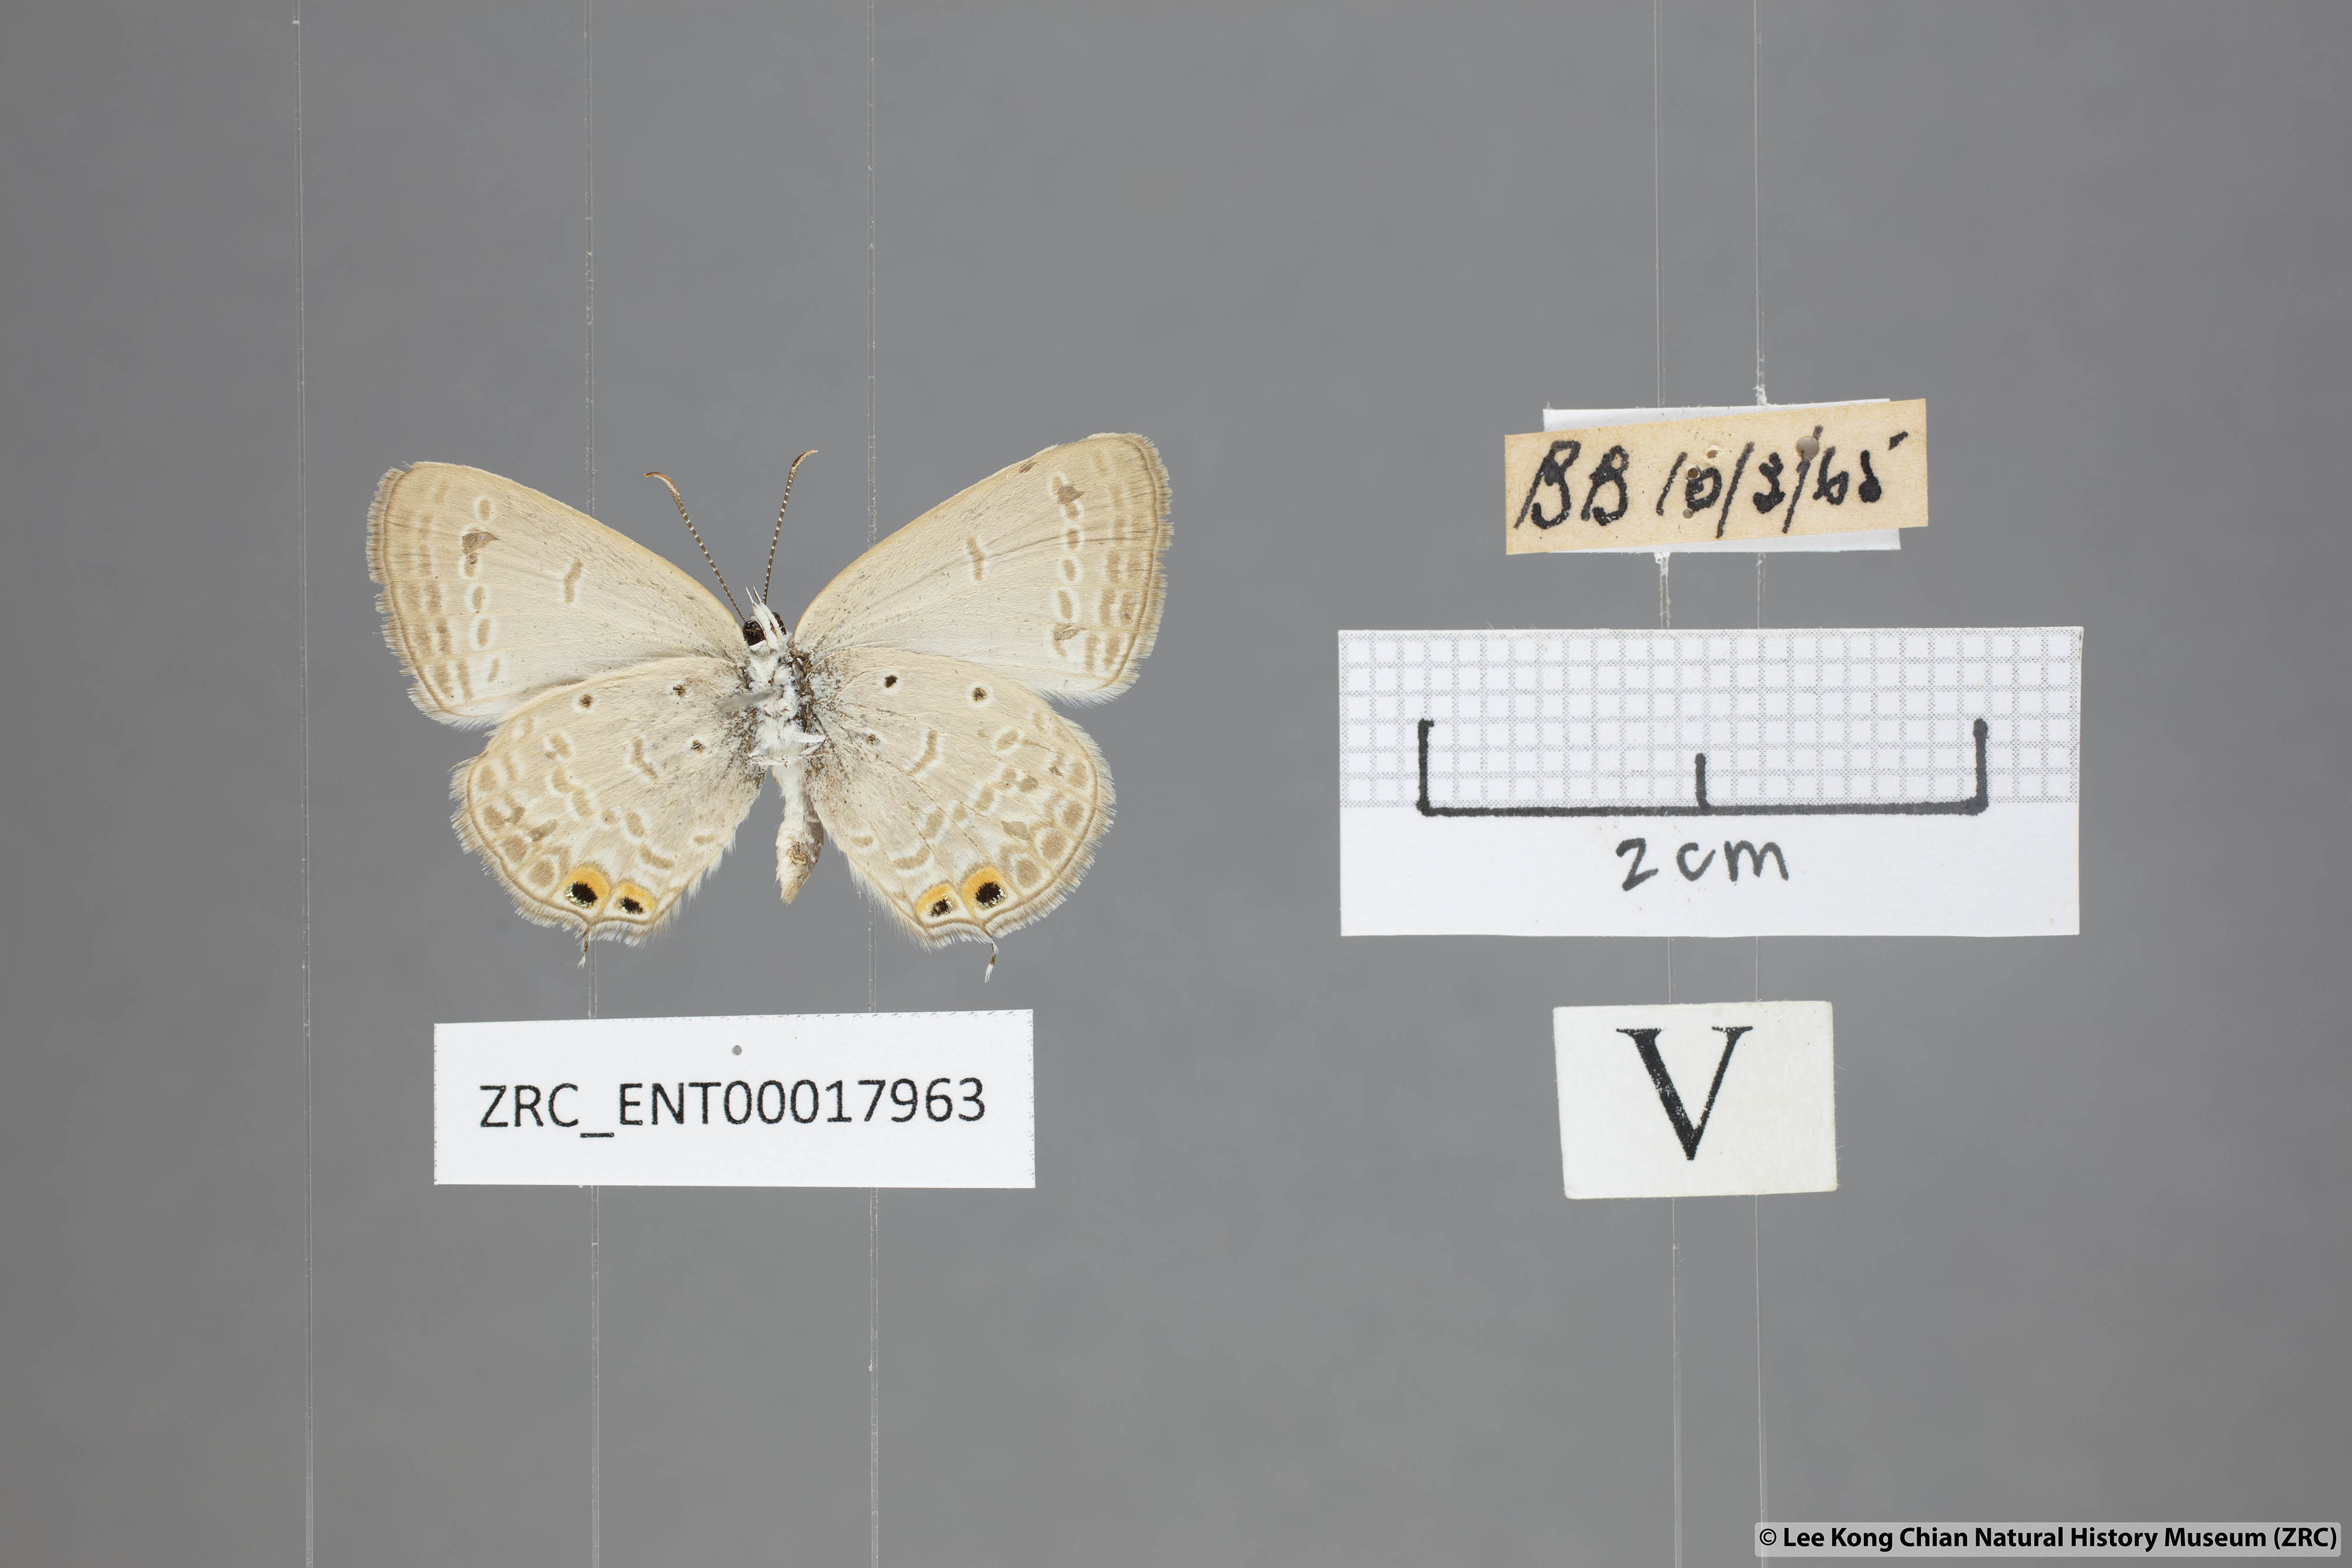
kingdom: Animalia
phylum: Arthropoda
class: Insecta
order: Lepidoptera
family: Lycaenidae
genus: Euchrysops
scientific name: Euchrysops cnejus
